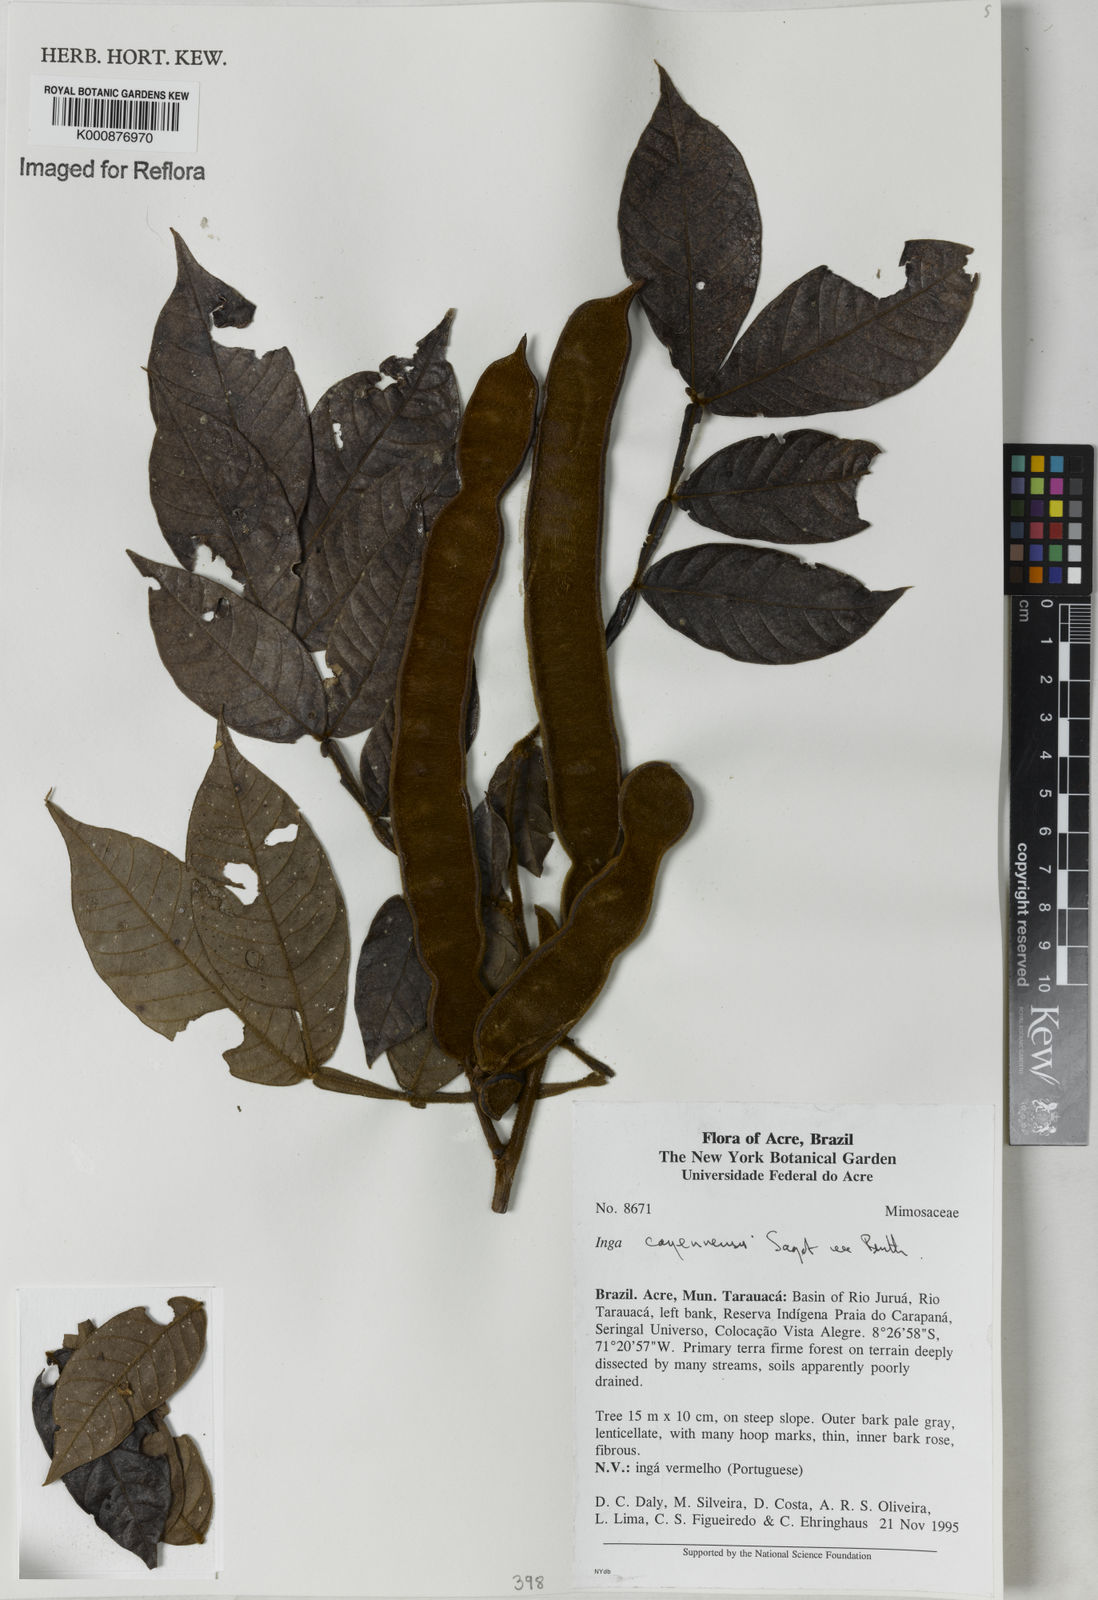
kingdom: Plantae
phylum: Tracheophyta
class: Magnoliopsida
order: Fabales
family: Fabaceae
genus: Inga
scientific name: Inga cayennensis
